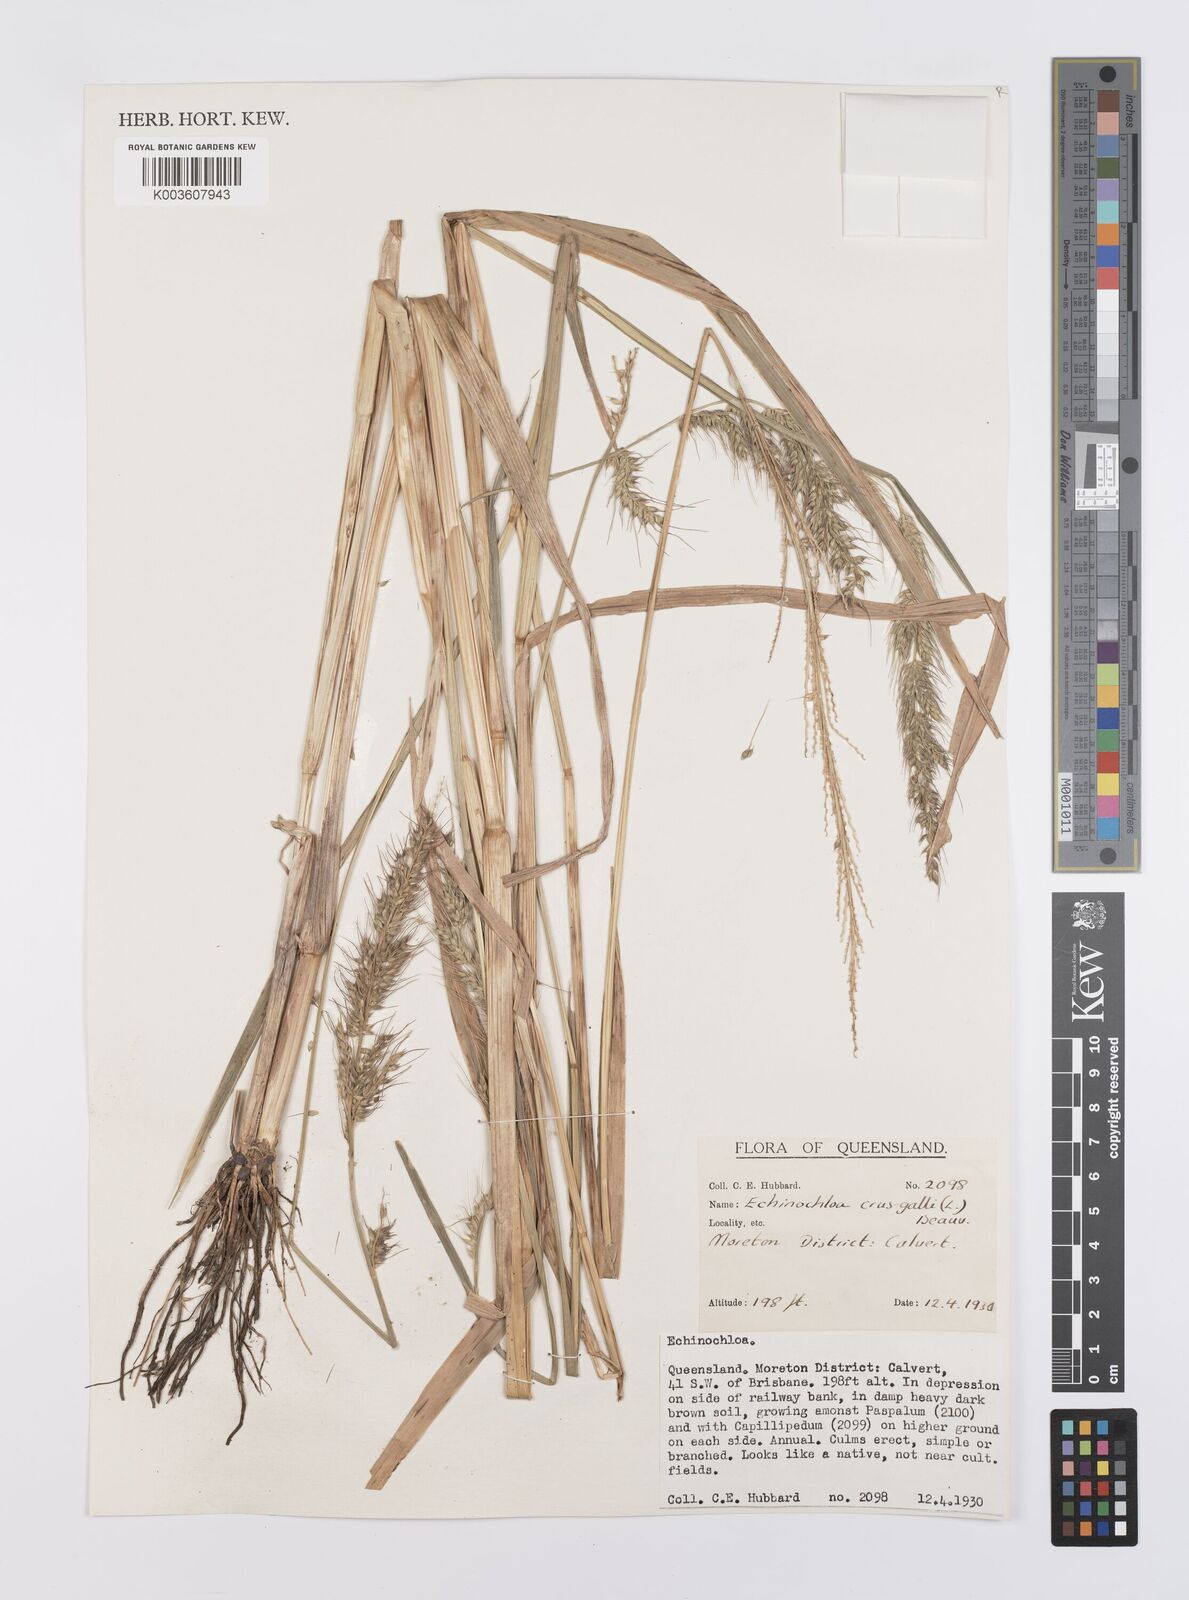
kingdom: Plantae
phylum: Tracheophyta
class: Liliopsida
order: Poales
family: Poaceae
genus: Echinochloa
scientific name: Echinochloa crus-galli
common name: Cockspur
